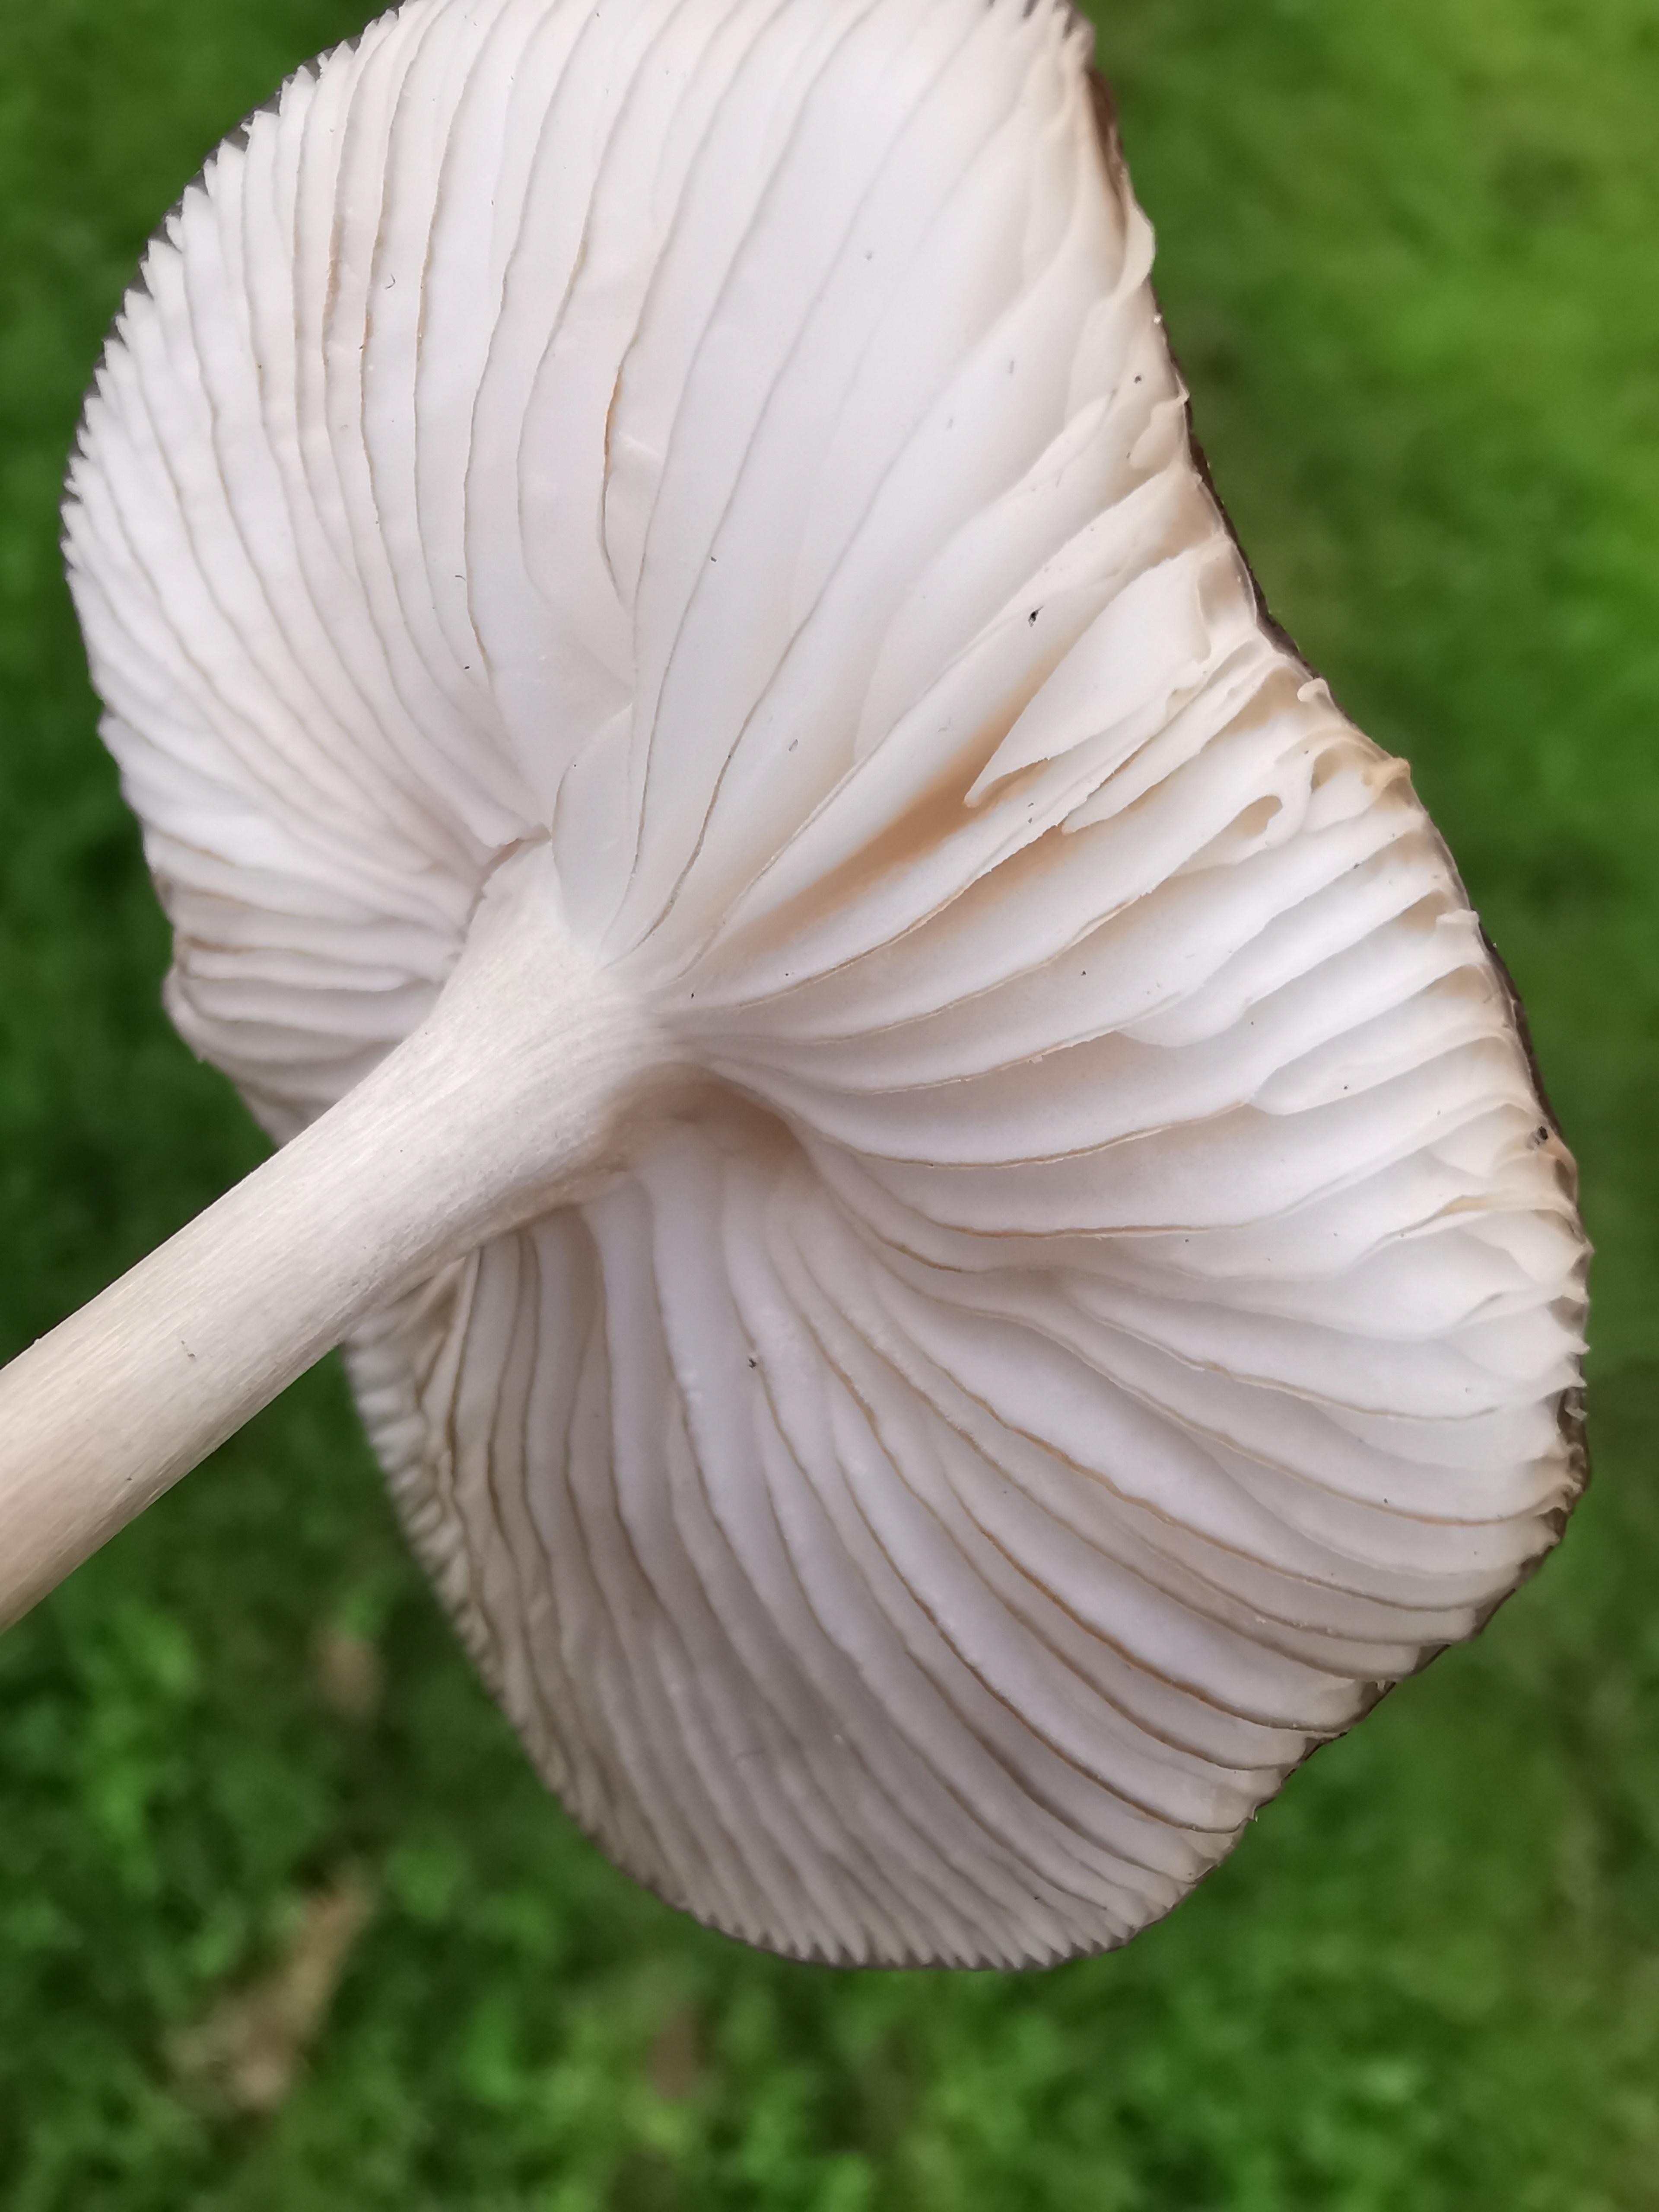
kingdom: Fungi
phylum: Basidiomycota
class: Agaricomycetes
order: Agaricales
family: Physalacriaceae
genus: Hymenopellis
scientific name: Hymenopellis radicata
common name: almindelig pælerodshat
